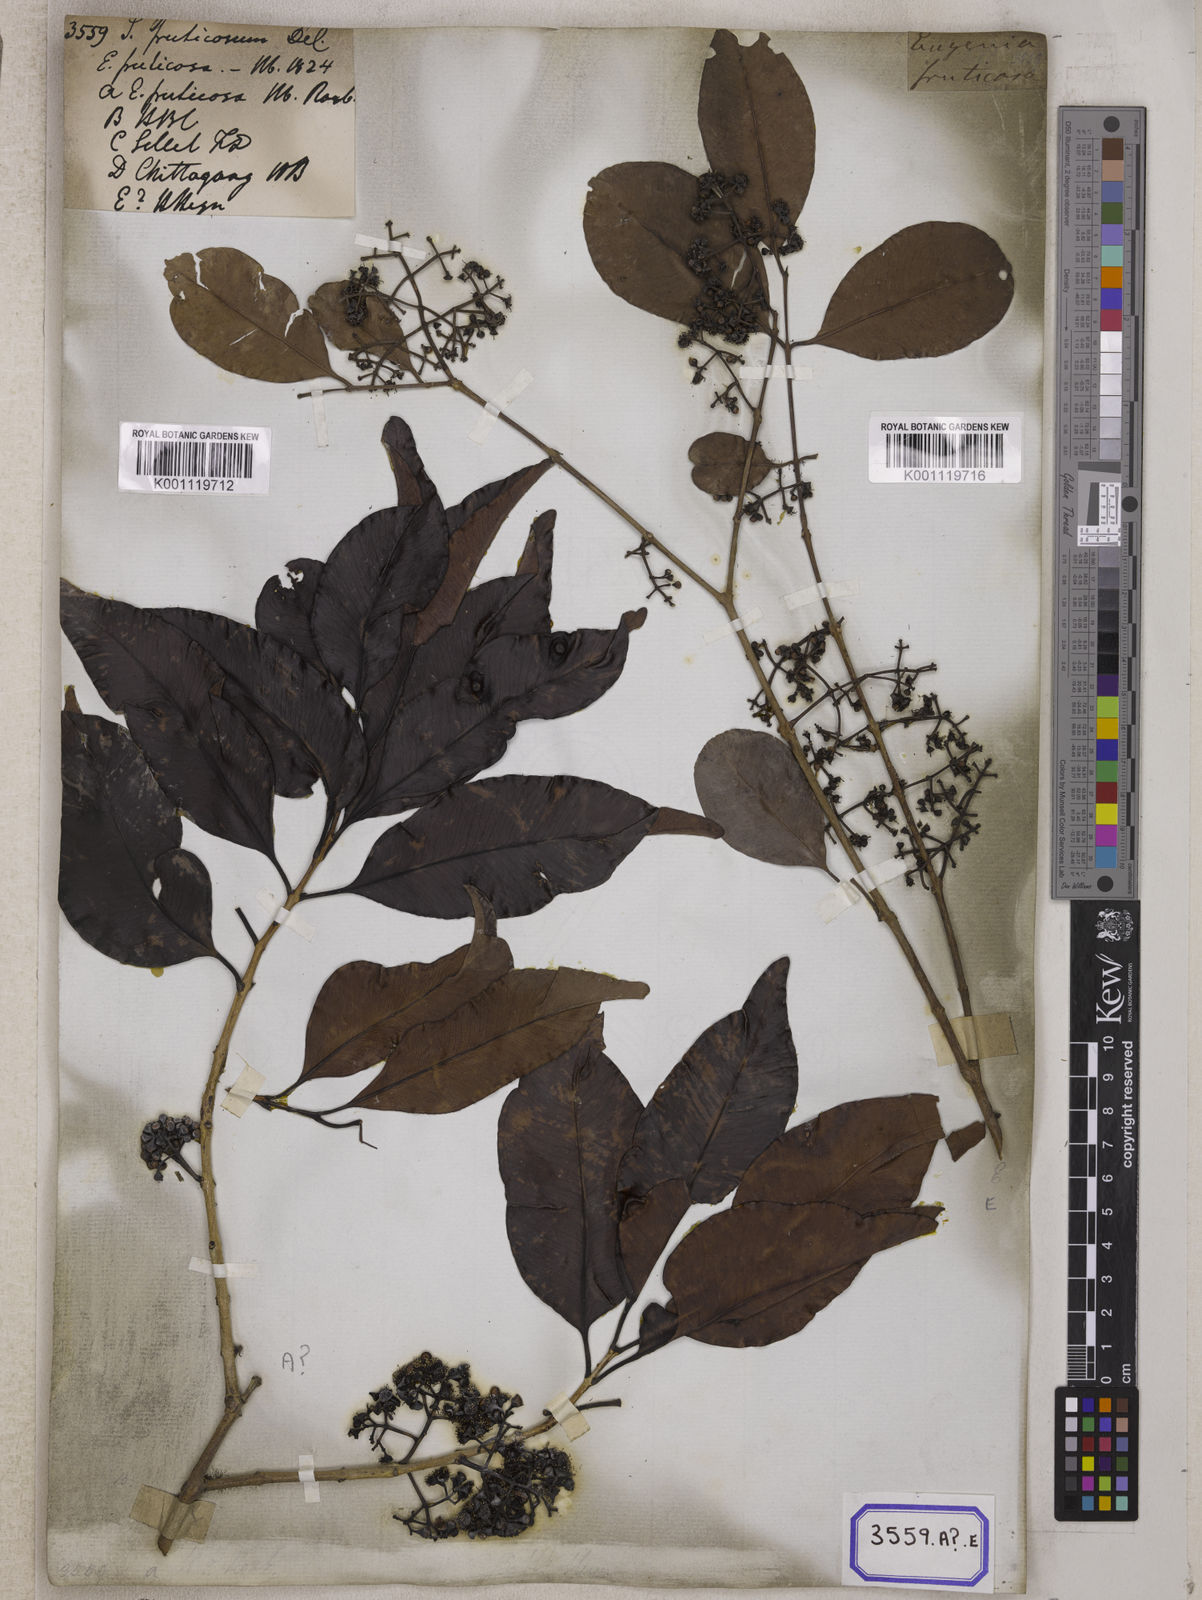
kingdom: Plantae
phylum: Tracheophyta
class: Magnoliopsida
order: Myrtales
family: Myrtaceae
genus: Syzygium
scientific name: Syzygium fruticosum
